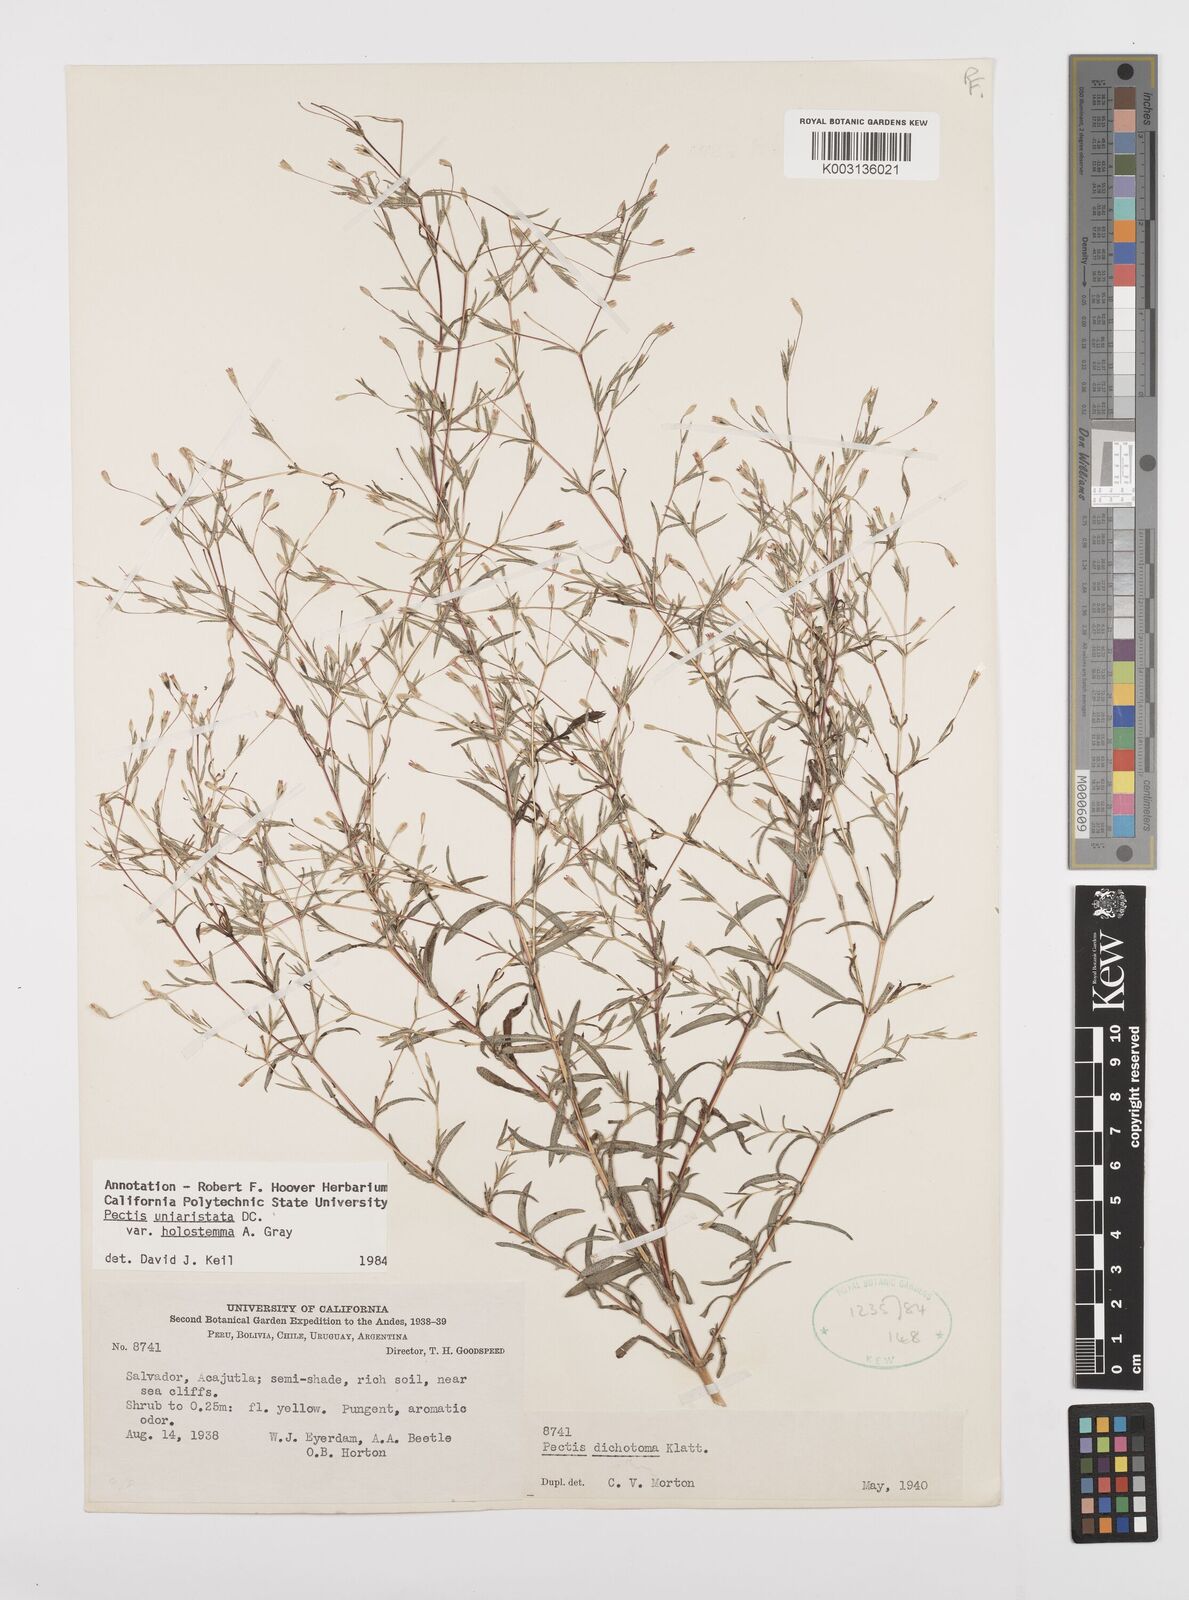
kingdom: Plantae
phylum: Tracheophyta
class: Magnoliopsida
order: Asterales
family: Asteraceae
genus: Pectis
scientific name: Pectis uniaristata
